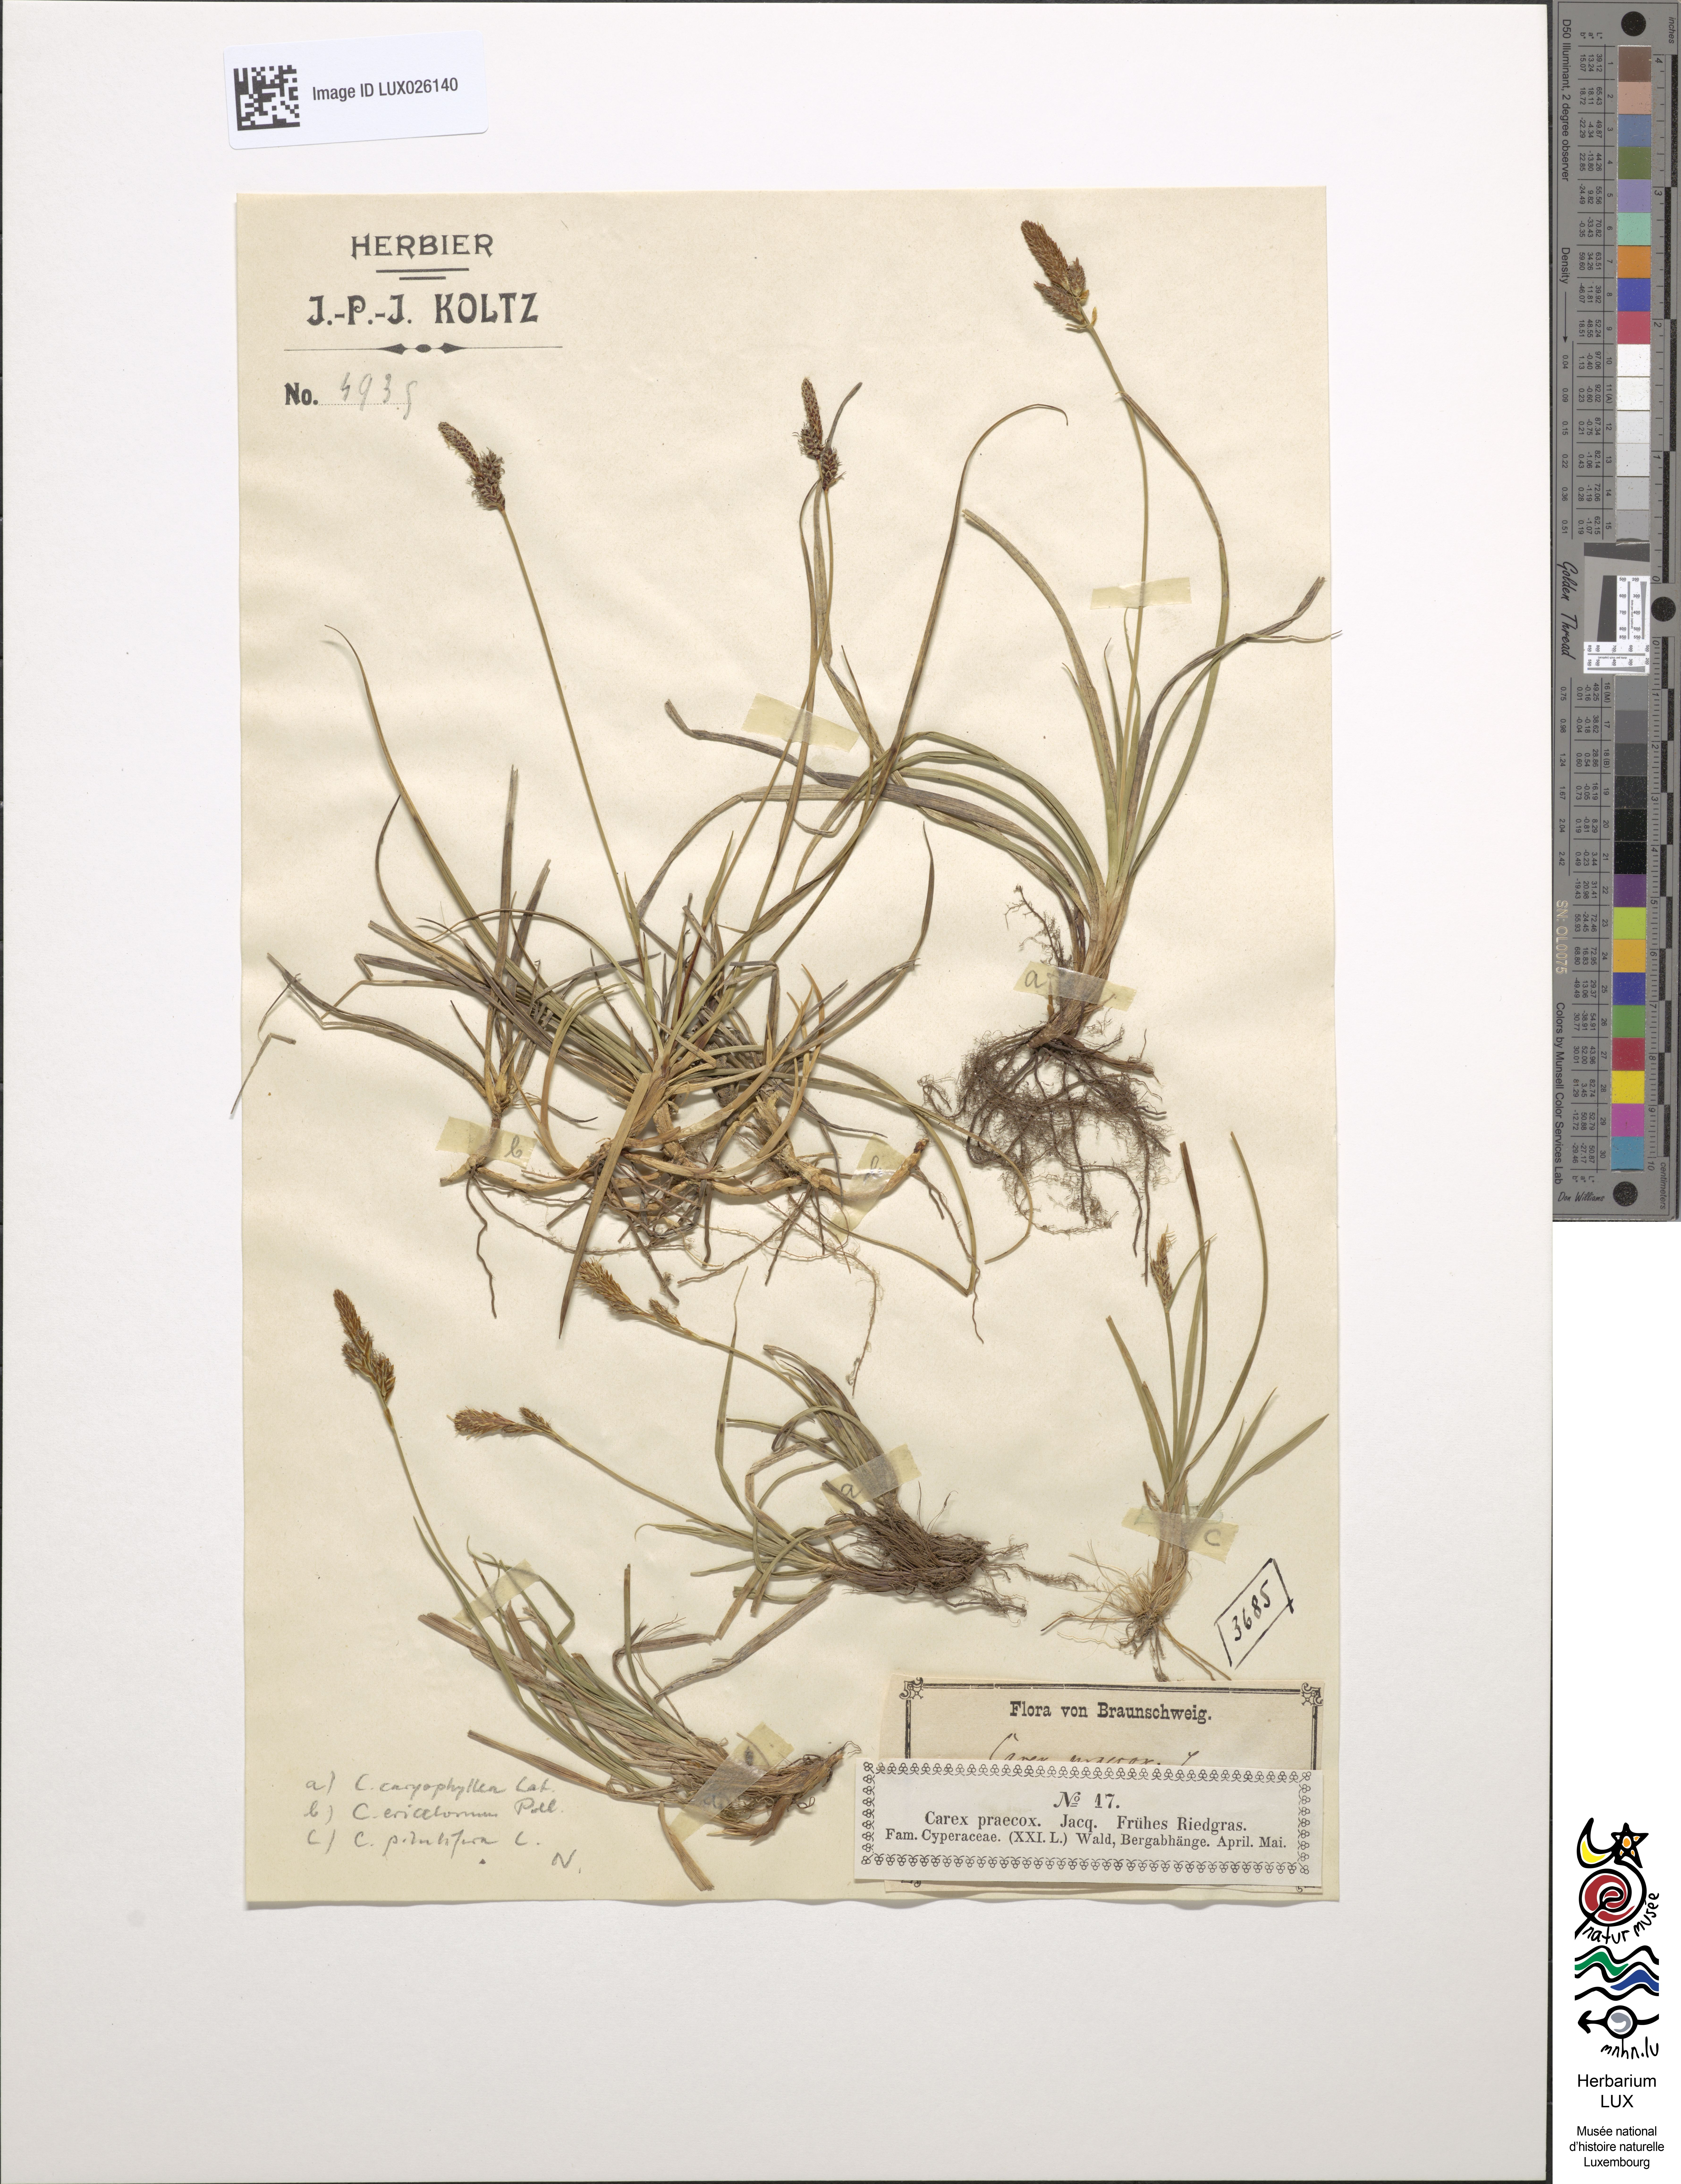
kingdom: Plantae
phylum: Tracheophyta
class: Liliopsida
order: Poales
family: Cyperaceae
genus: Carex
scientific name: Carex caryophyllea
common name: Spring sedge
